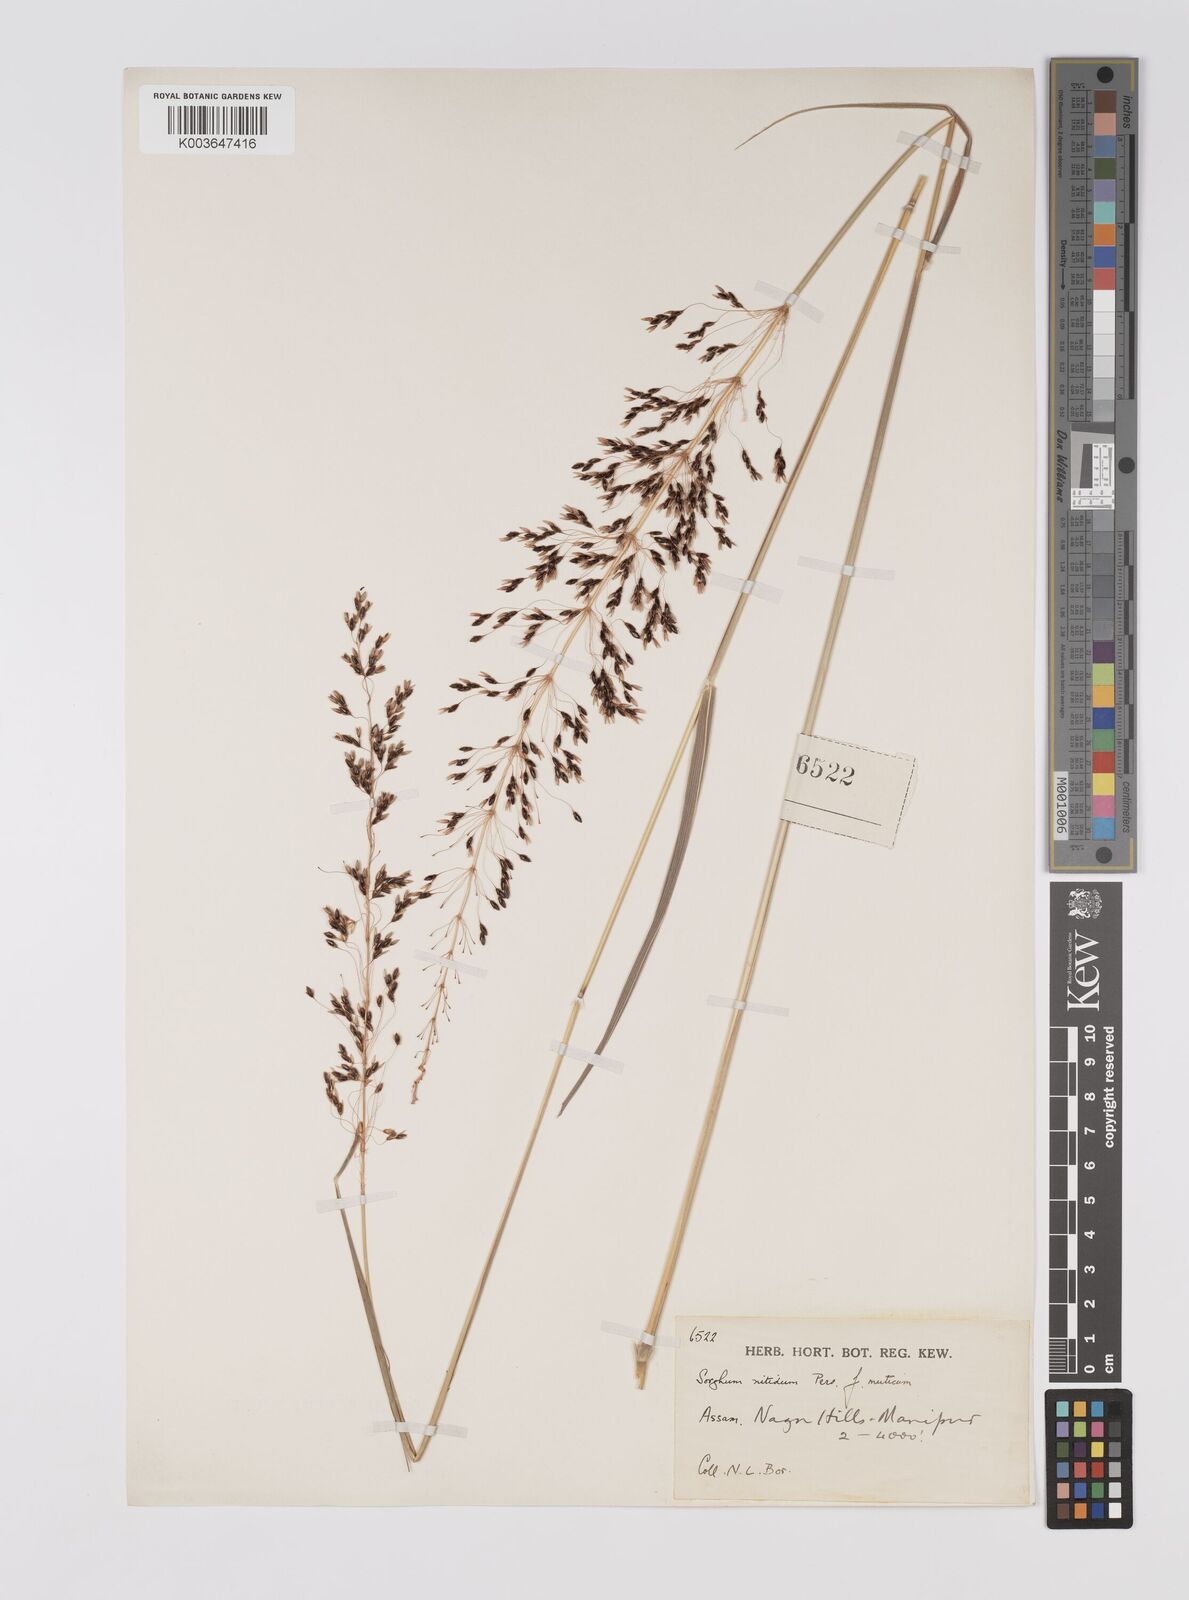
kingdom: Plantae
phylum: Tracheophyta
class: Liliopsida
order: Poales
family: Poaceae
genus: Sorghum
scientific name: Sorghum nitidum
